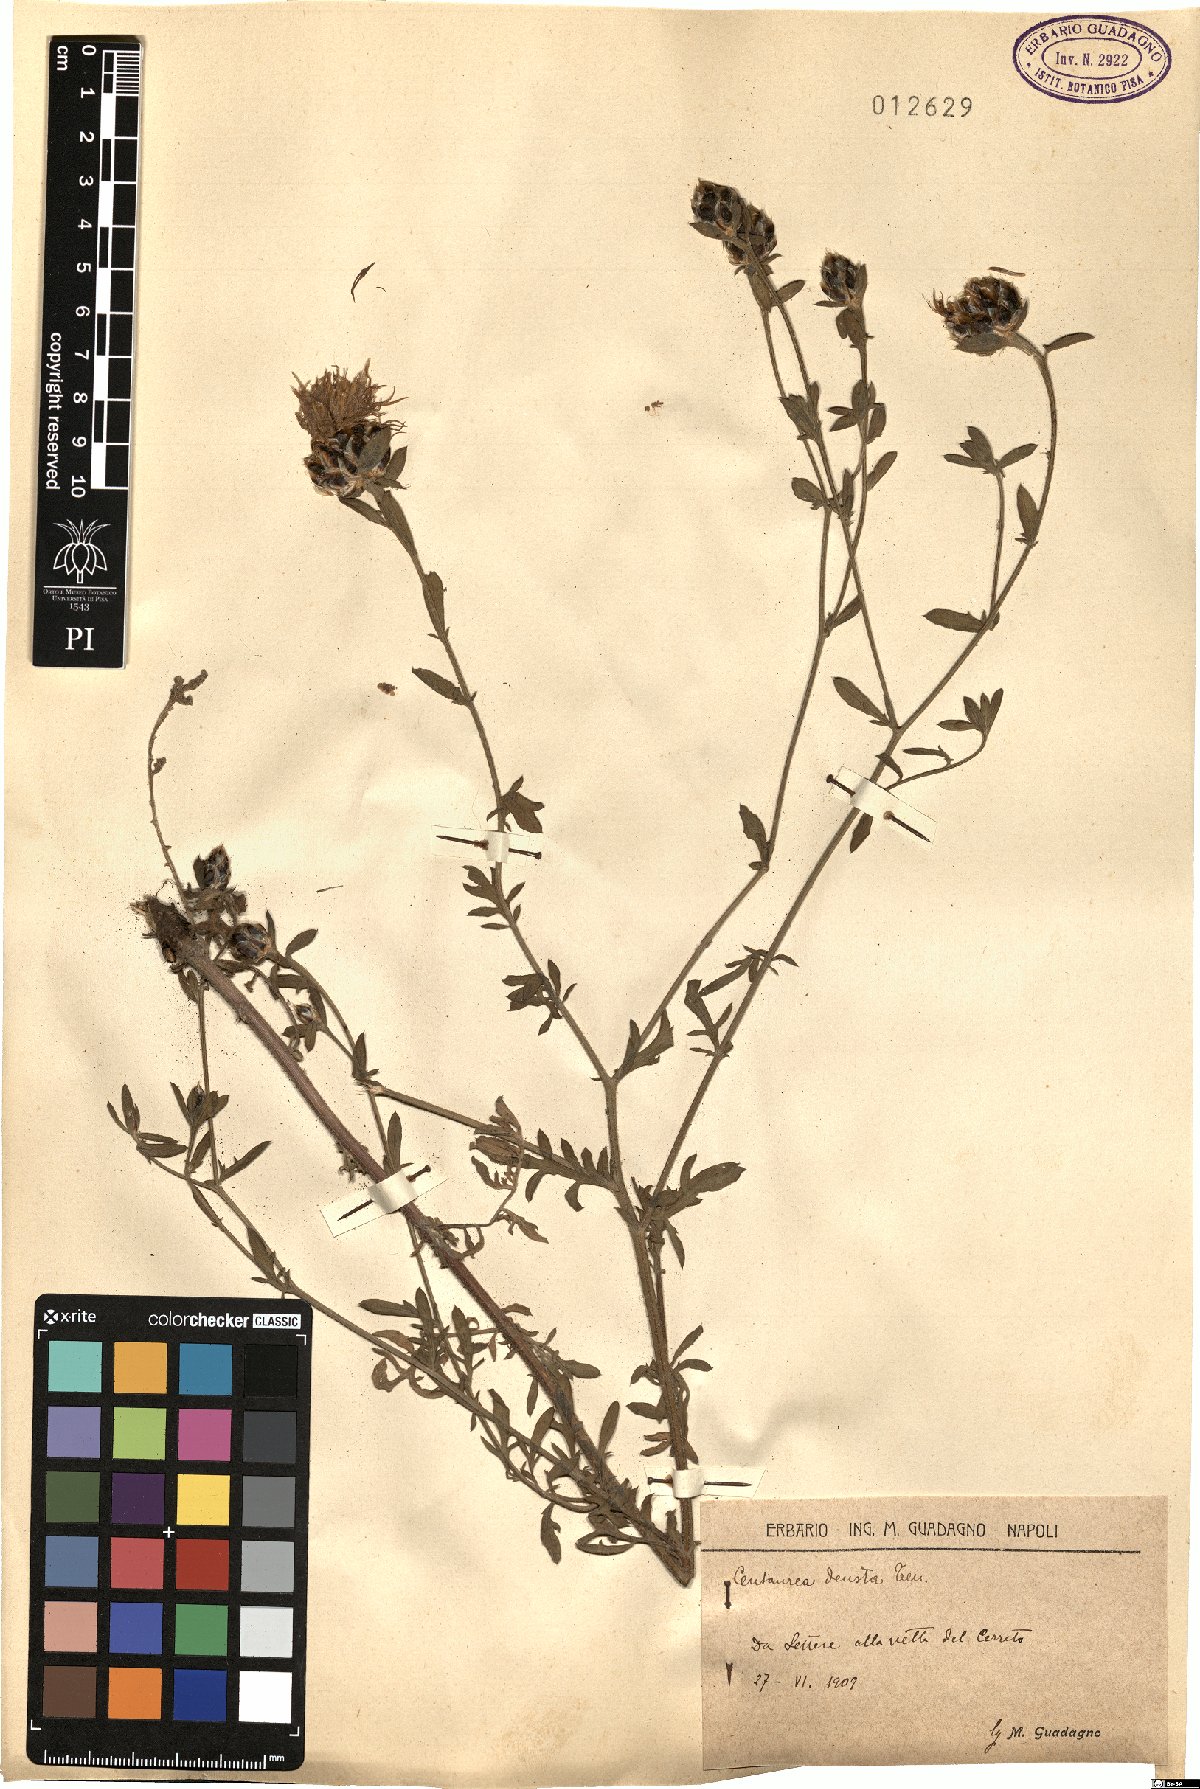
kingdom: Plantae
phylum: Tracheophyta
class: Magnoliopsida
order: Asterales
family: Asteraceae
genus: Centaurea
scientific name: Centaurea deusta
